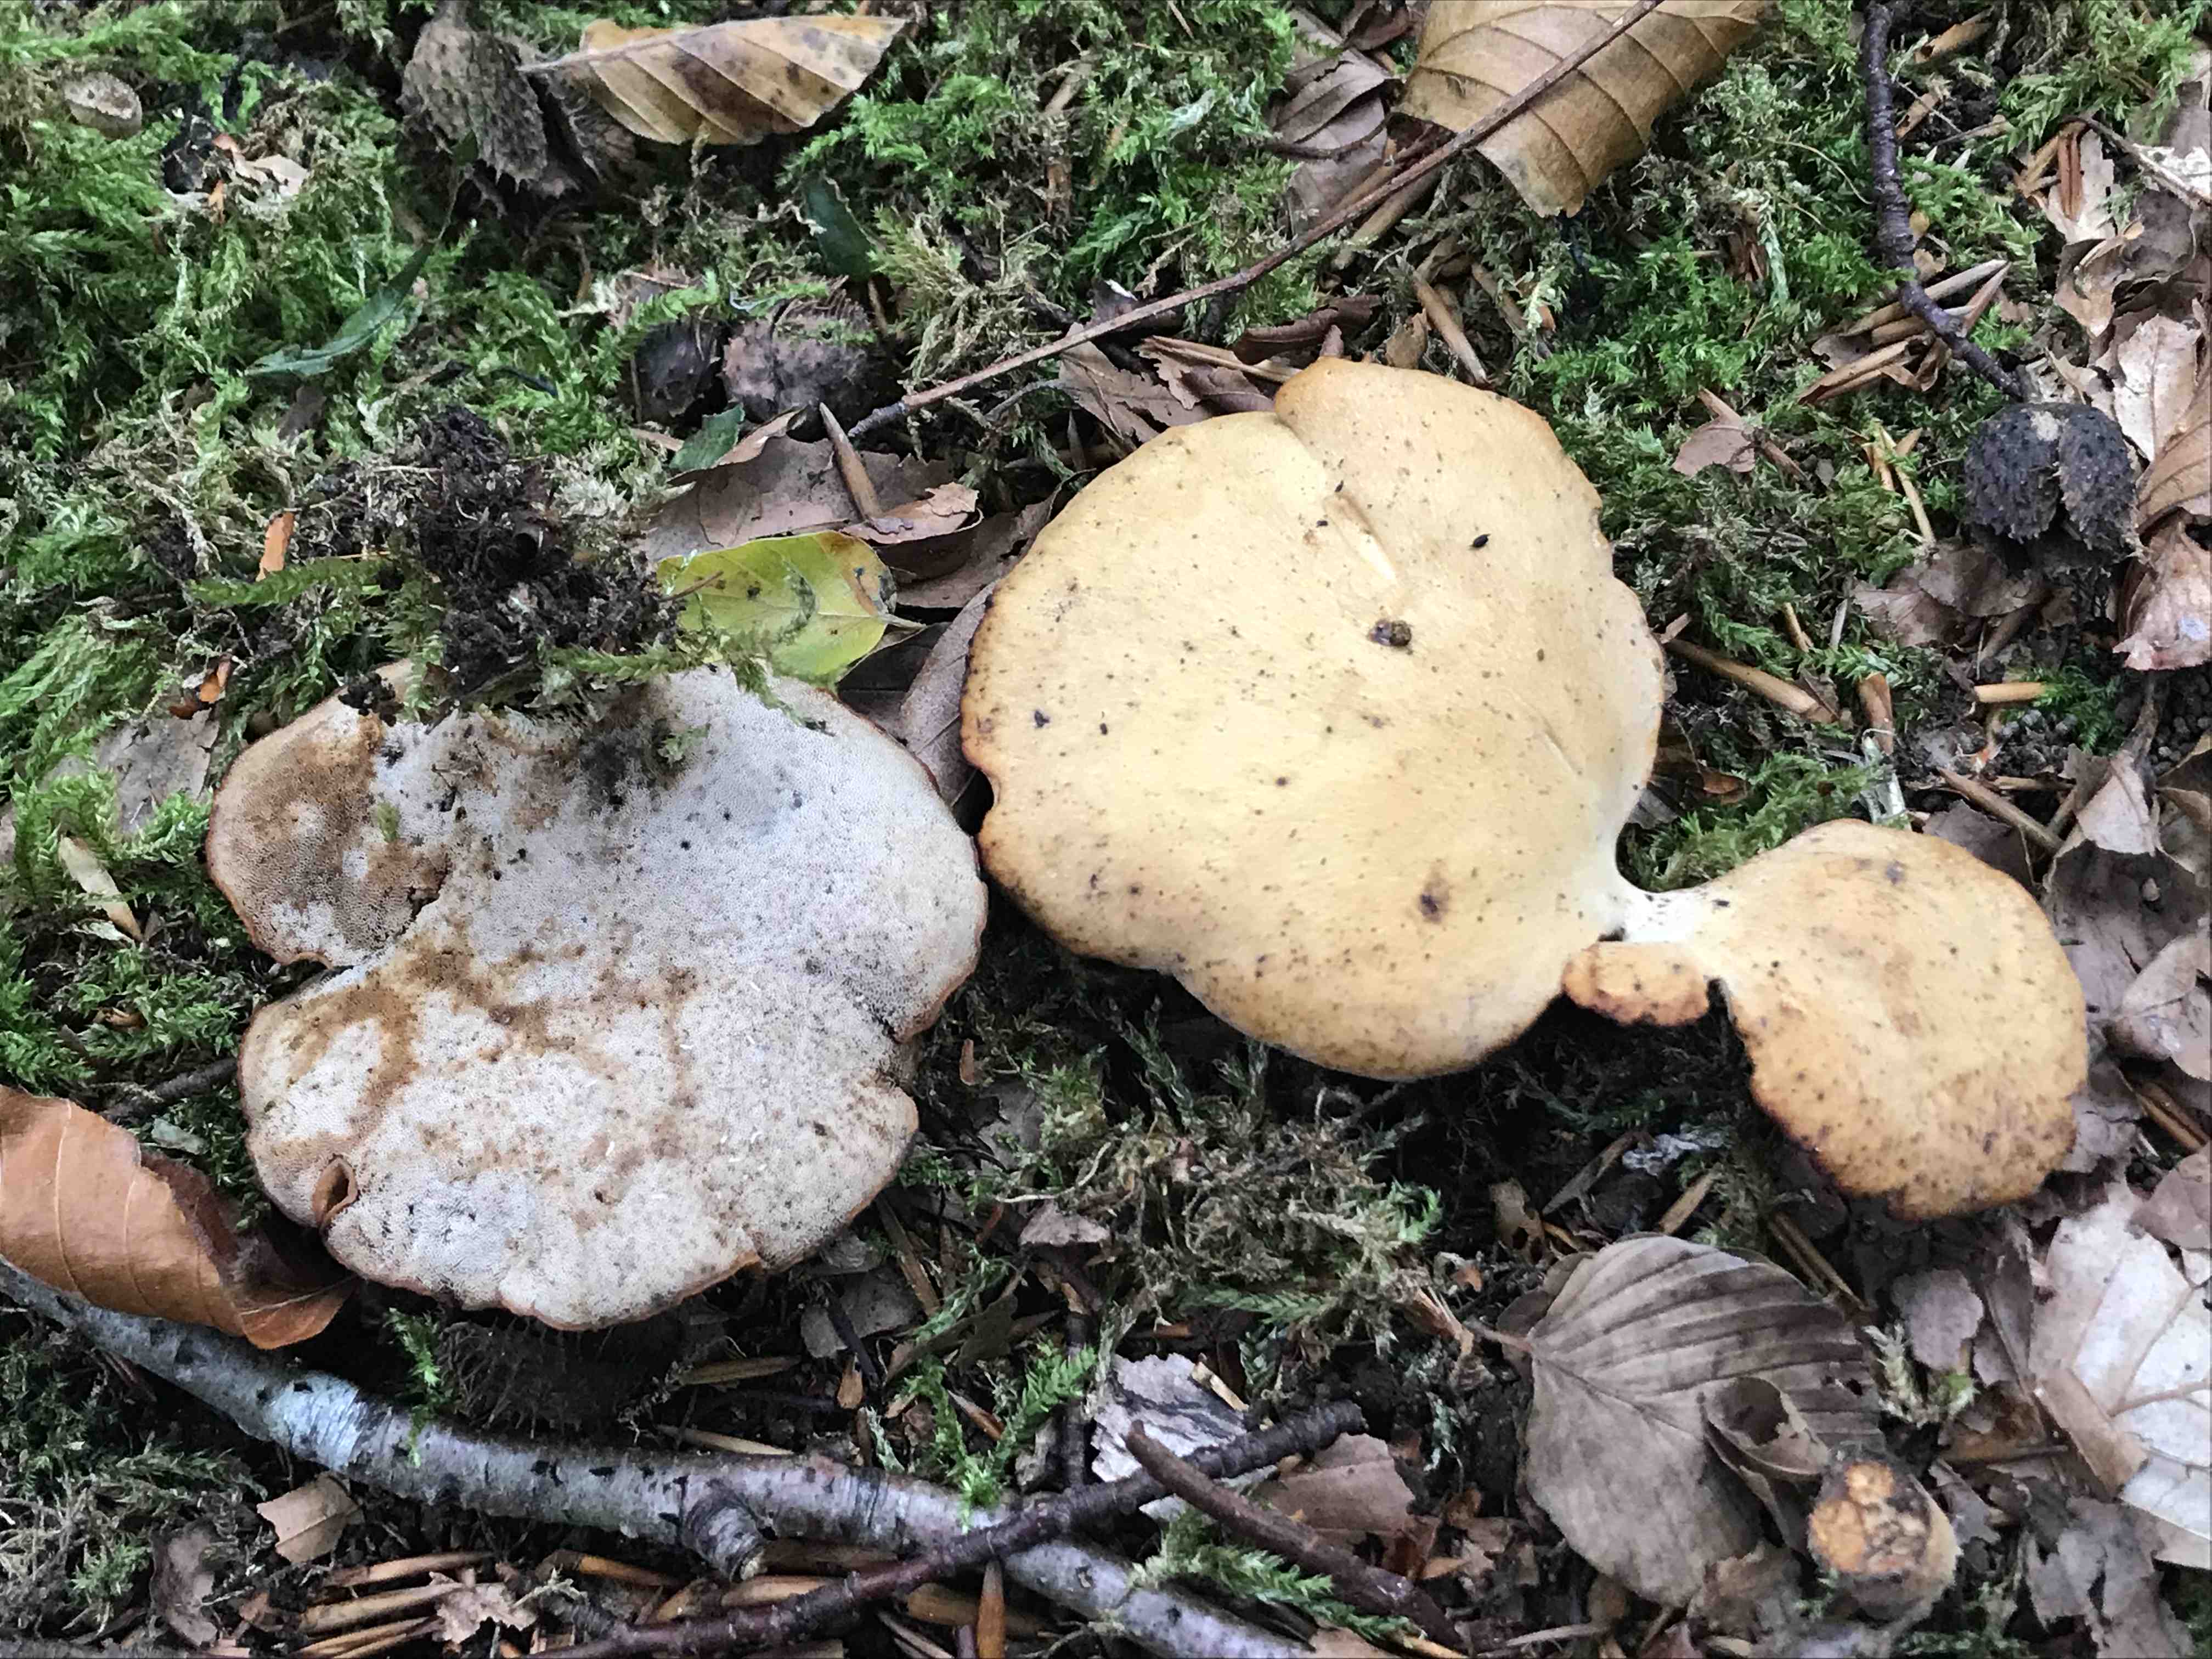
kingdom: Fungi
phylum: Basidiomycota
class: Agaricomycetes
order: Polyporales
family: Polyporaceae
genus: Cerioporus
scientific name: Cerioporus varius
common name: foranderlig stilkporesvamp
